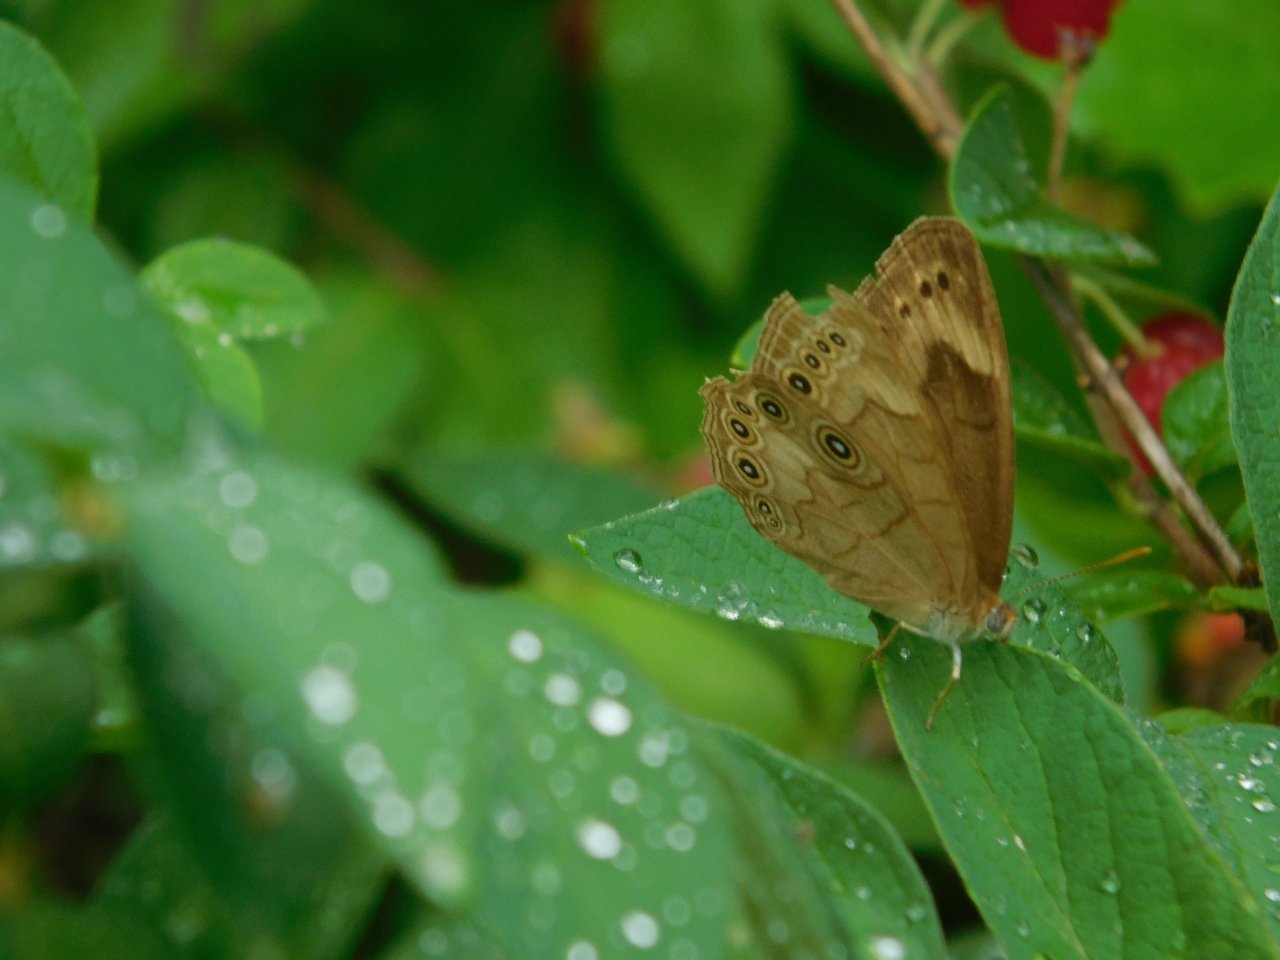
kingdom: Animalia
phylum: Arthropoda
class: Insecta
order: Lepidoptera
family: Nymphalidae
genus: Lethe
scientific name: Lethe eurydice
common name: Eyed Brown
